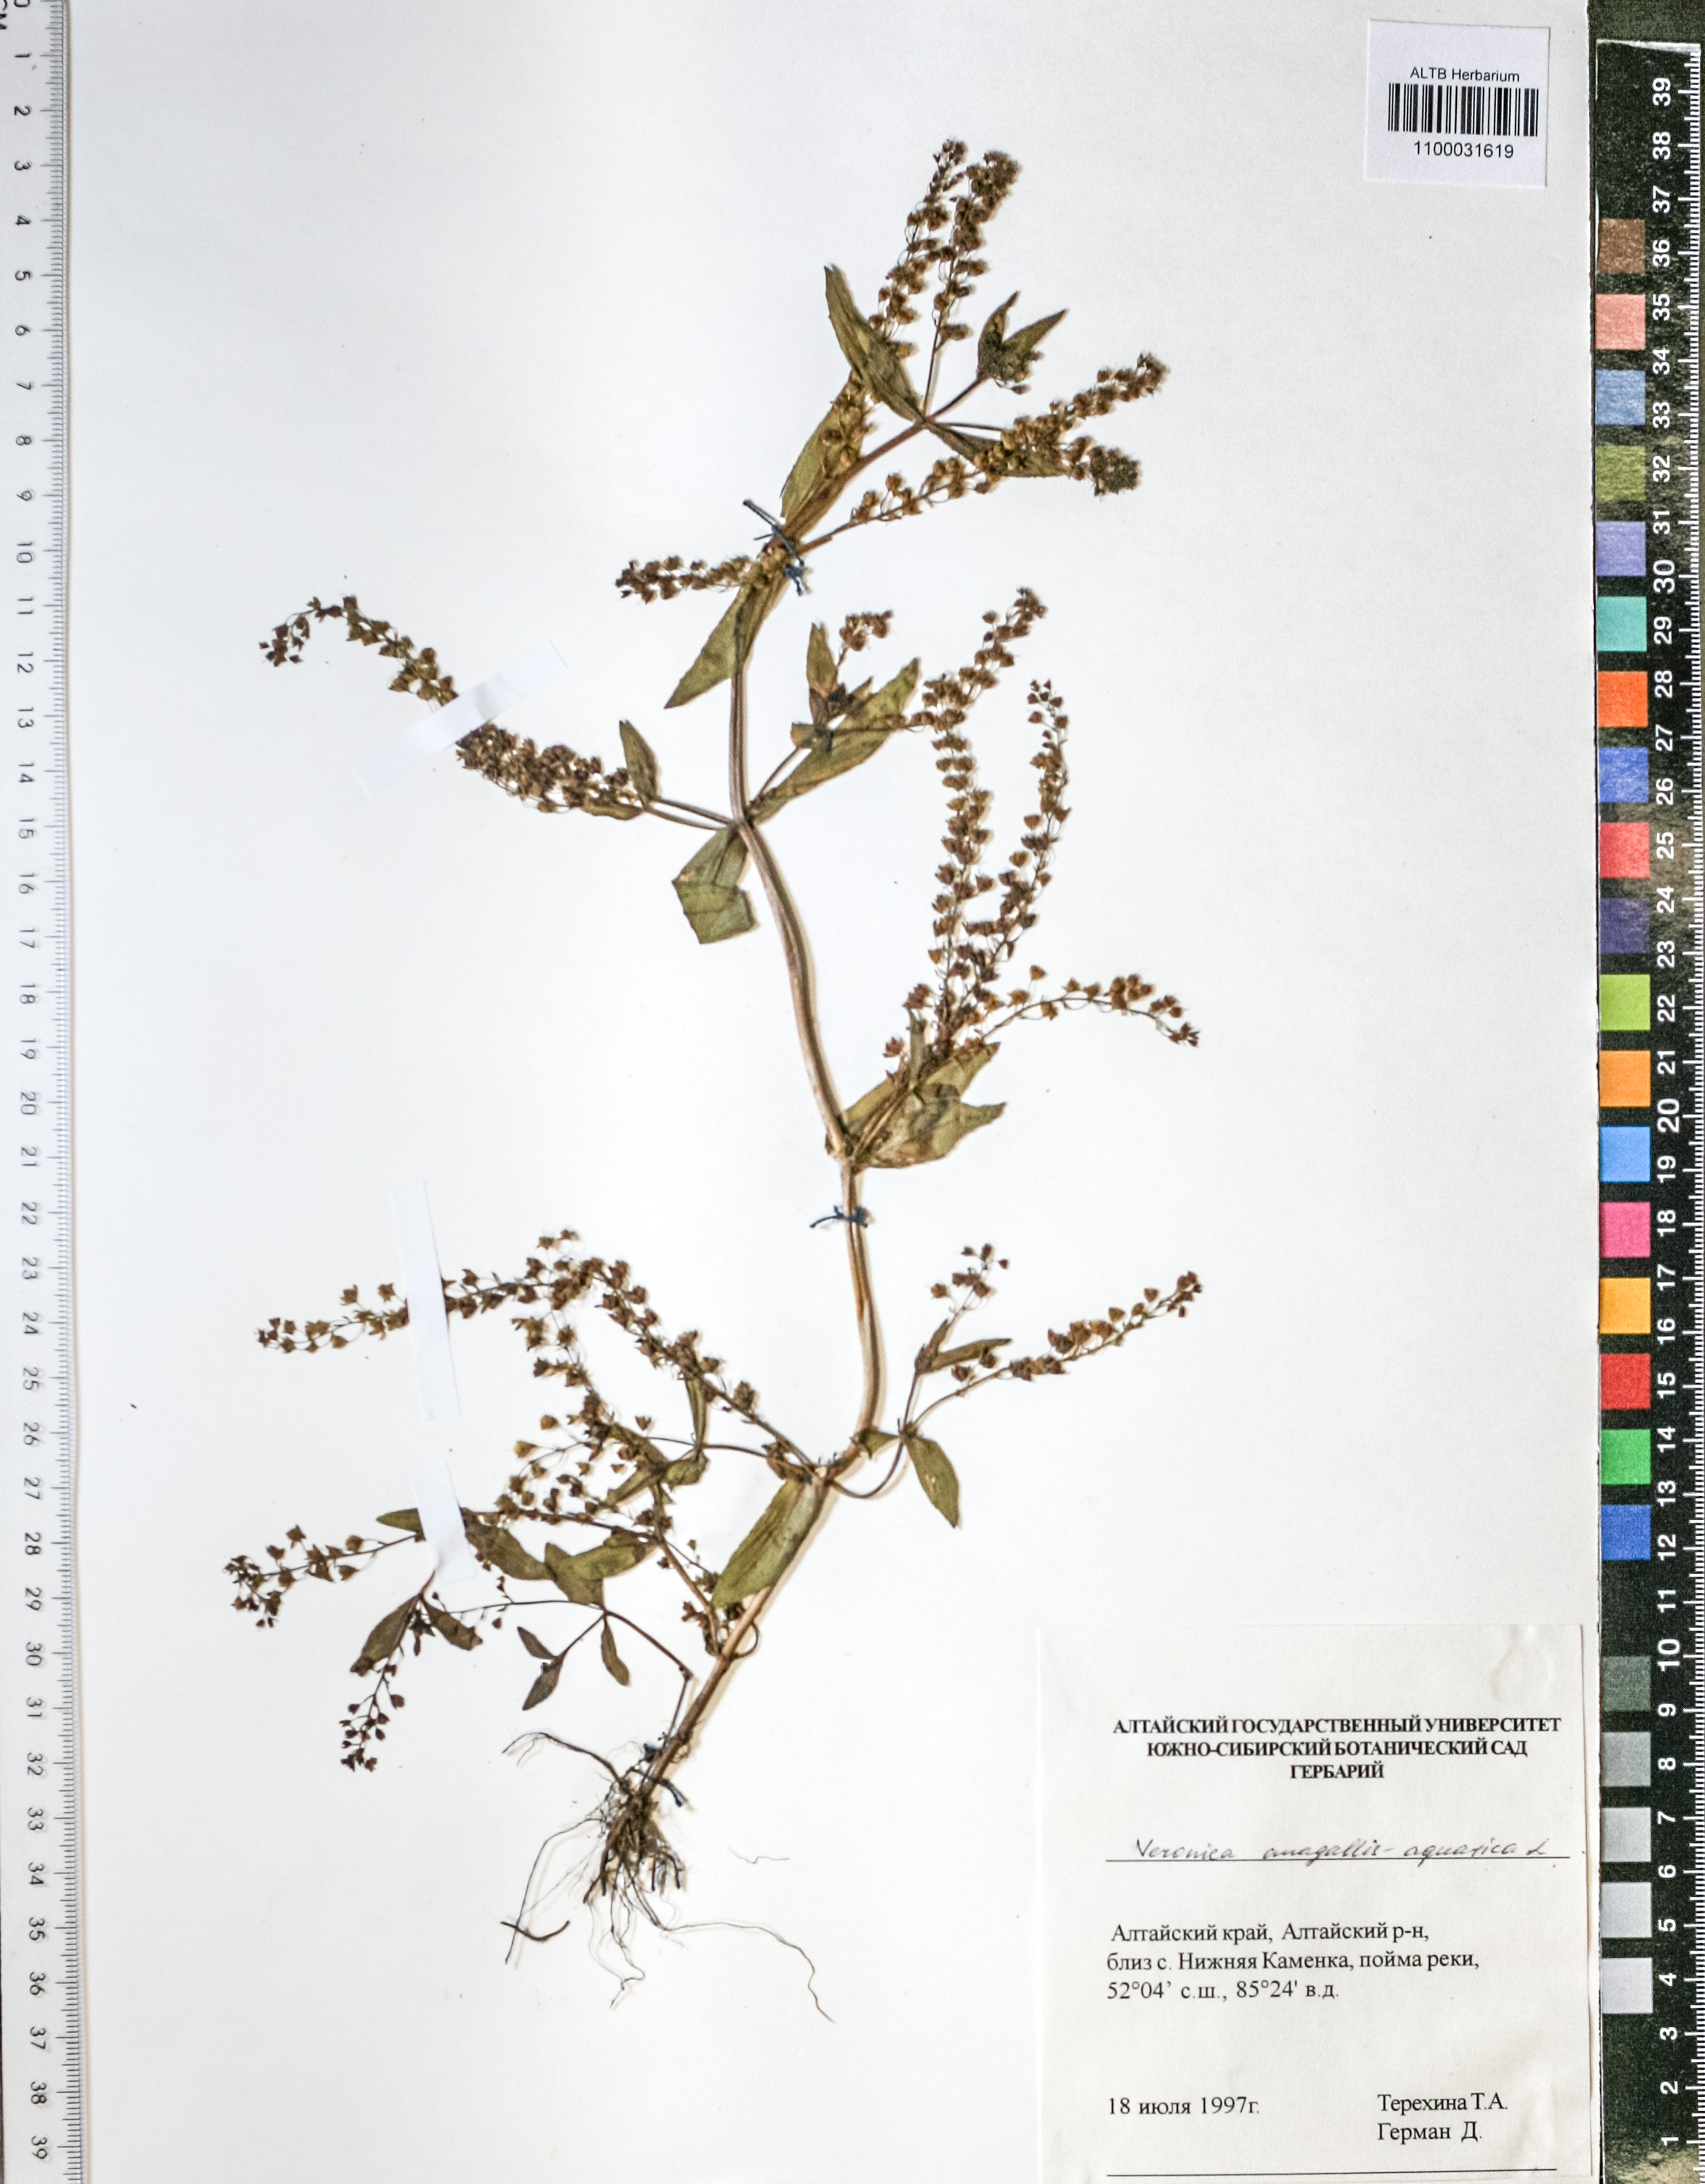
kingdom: Plantae
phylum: Tracheophyta
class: Magnoliopsida
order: Lamiales
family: Plantaginaceae
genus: Veronica
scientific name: Veronica anagallis-aquatica
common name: Water speedwell
